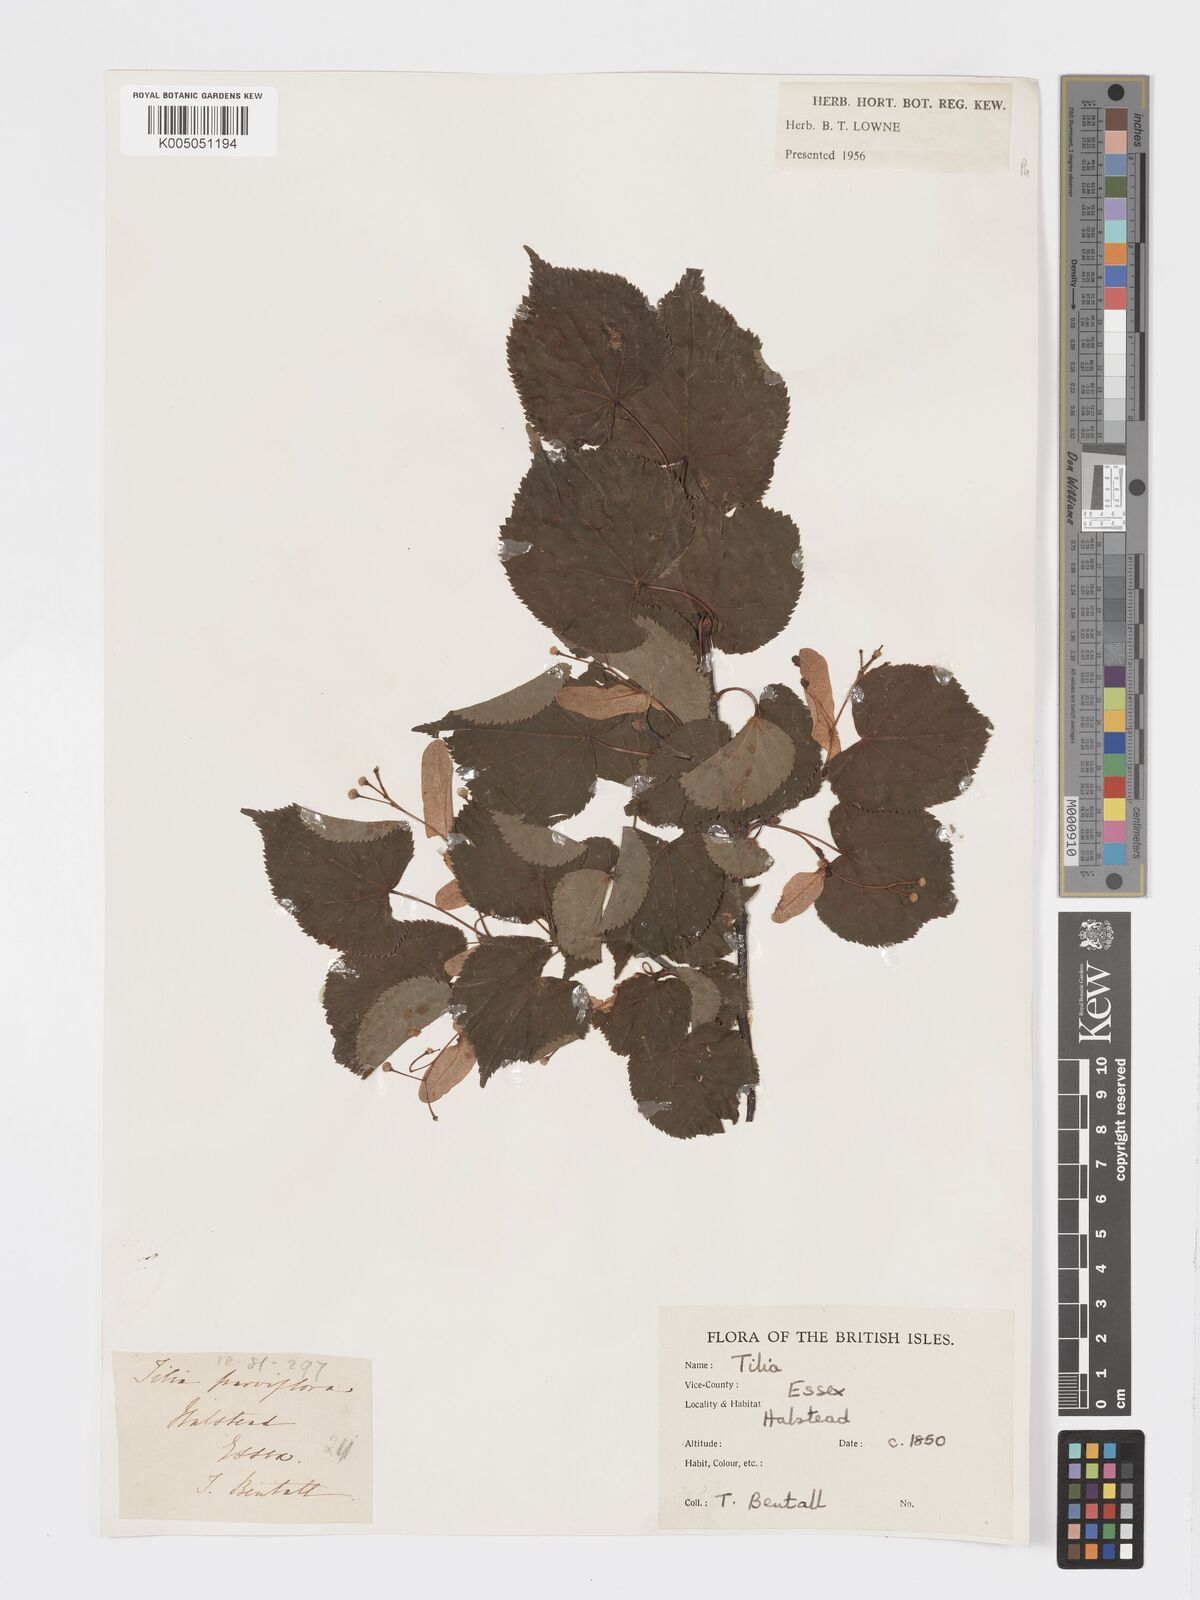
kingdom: Plantae
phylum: Tracheophyta
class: Magnoliopsida
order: Malvales
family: Malvaceae
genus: Tilia
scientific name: Tilia
